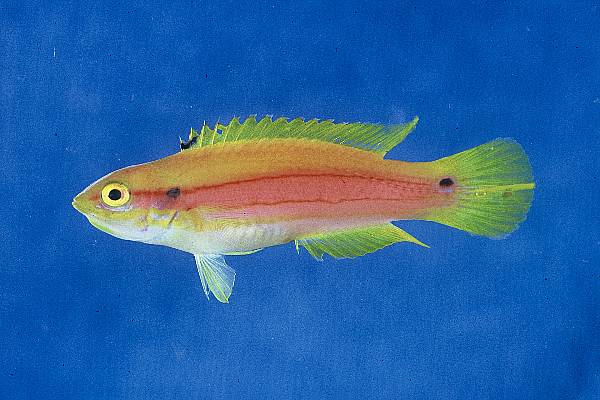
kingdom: Animalia
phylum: Chordata
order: Perciformes
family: Labridae
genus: Bodianus
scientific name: Bodianus bimaculatus
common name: Two-spot slender hogfish
